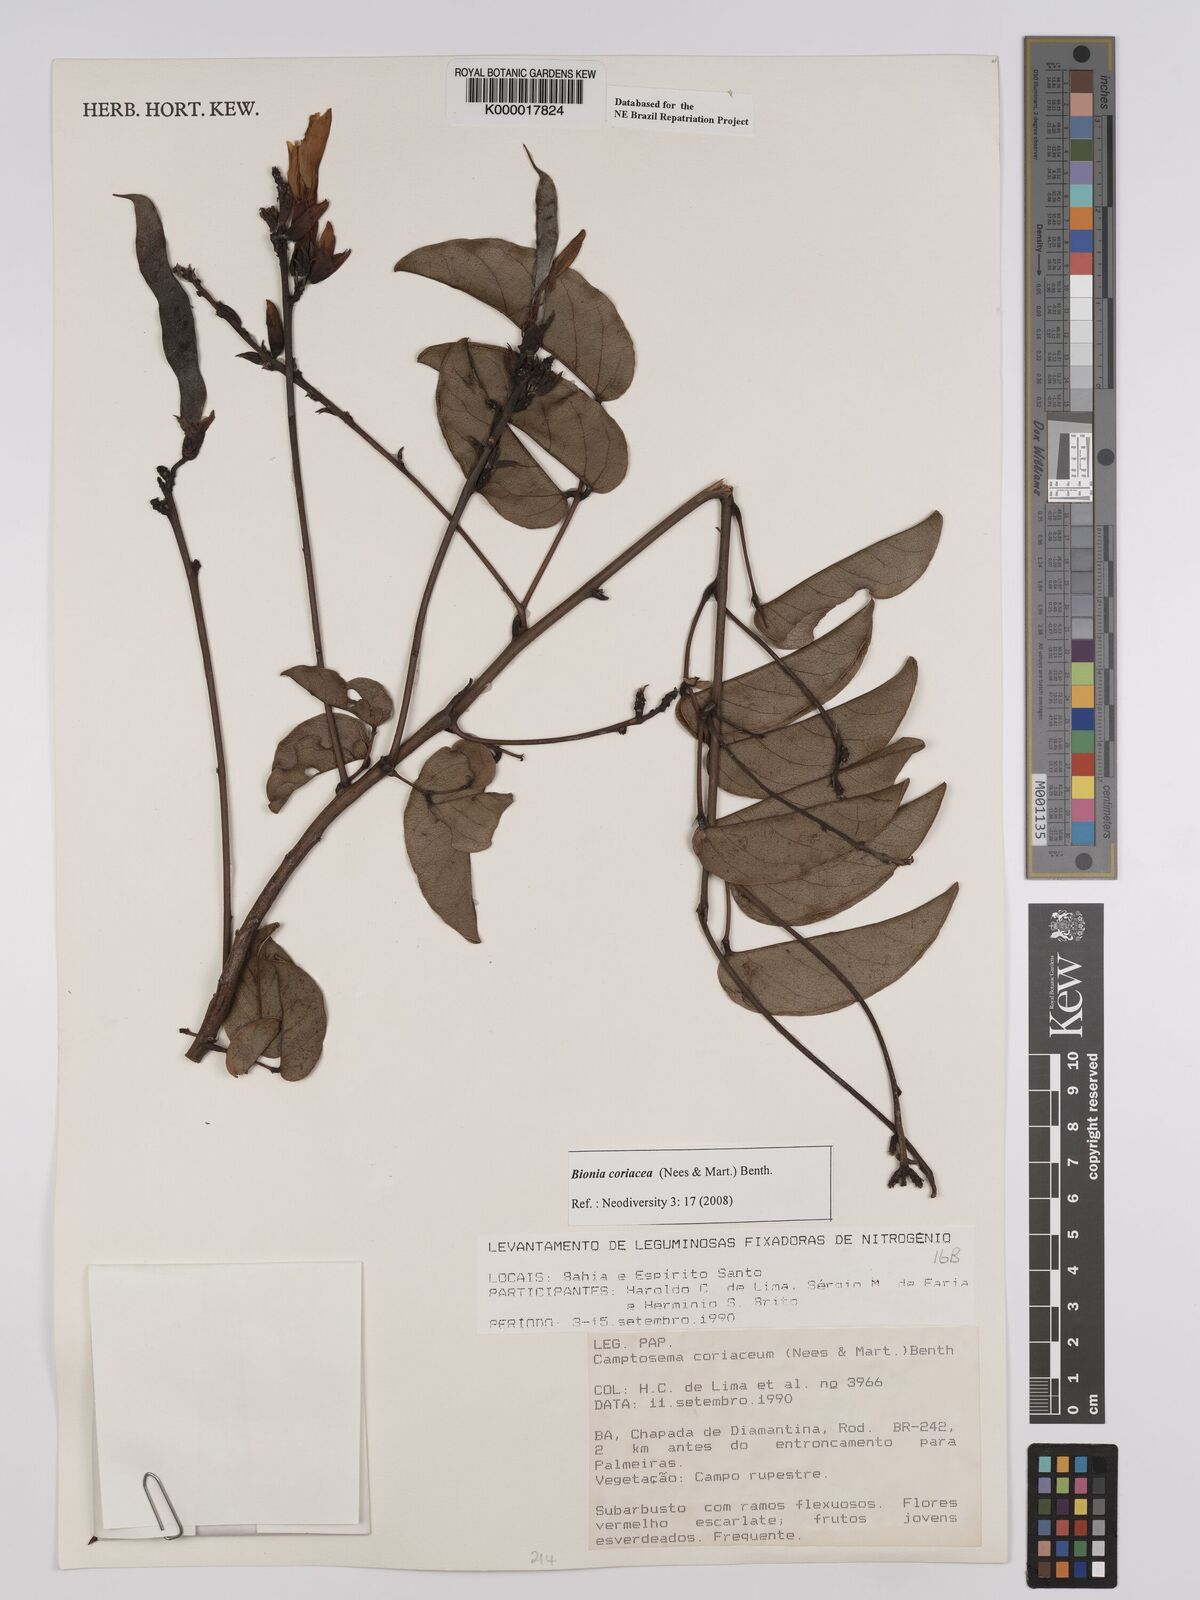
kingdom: Plantae
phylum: Tracheophyta
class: Magnoliopsida
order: Fabales
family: Fabaceae
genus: Camptosema
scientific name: Camptosema coriaceum
